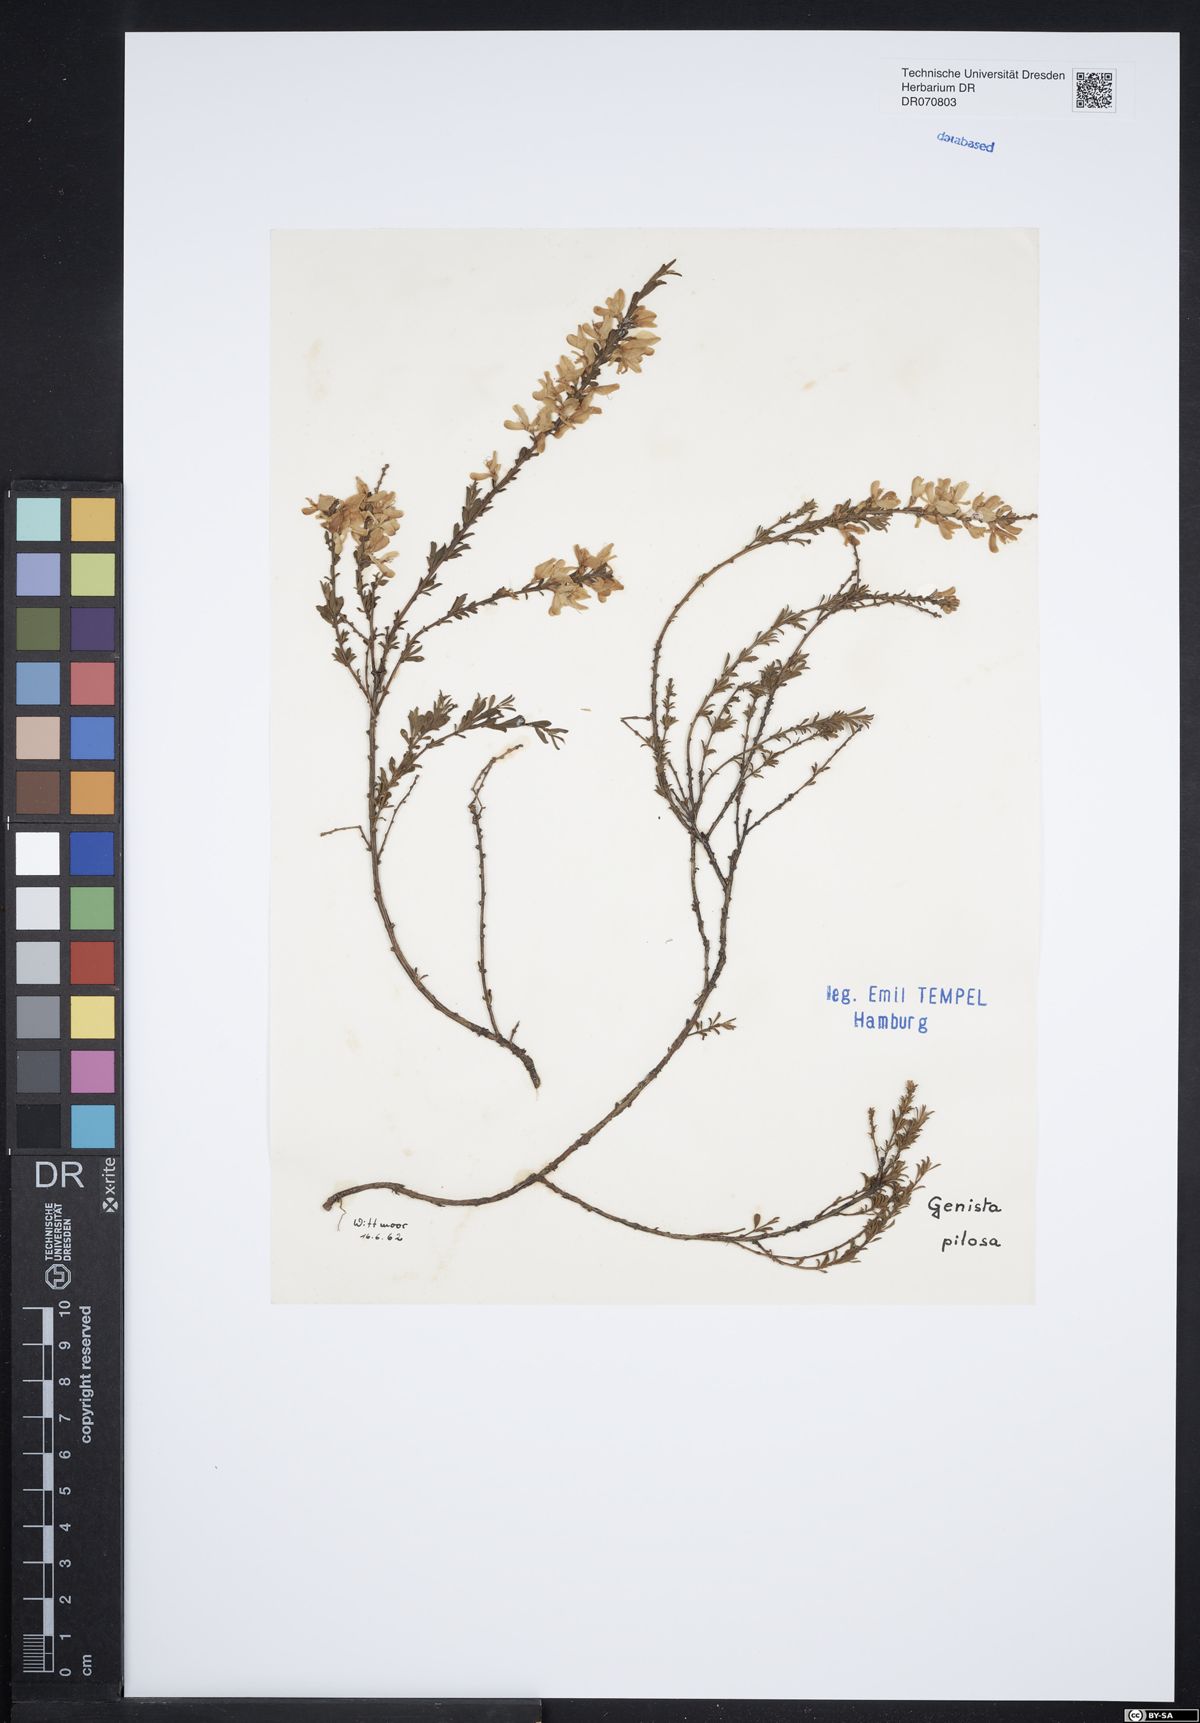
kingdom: Plantae
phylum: Tracheophyta
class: Magnoliopsida
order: Fabales
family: Fabaceae
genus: Genista
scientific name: Genista pilosa
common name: Hairy greenweed
